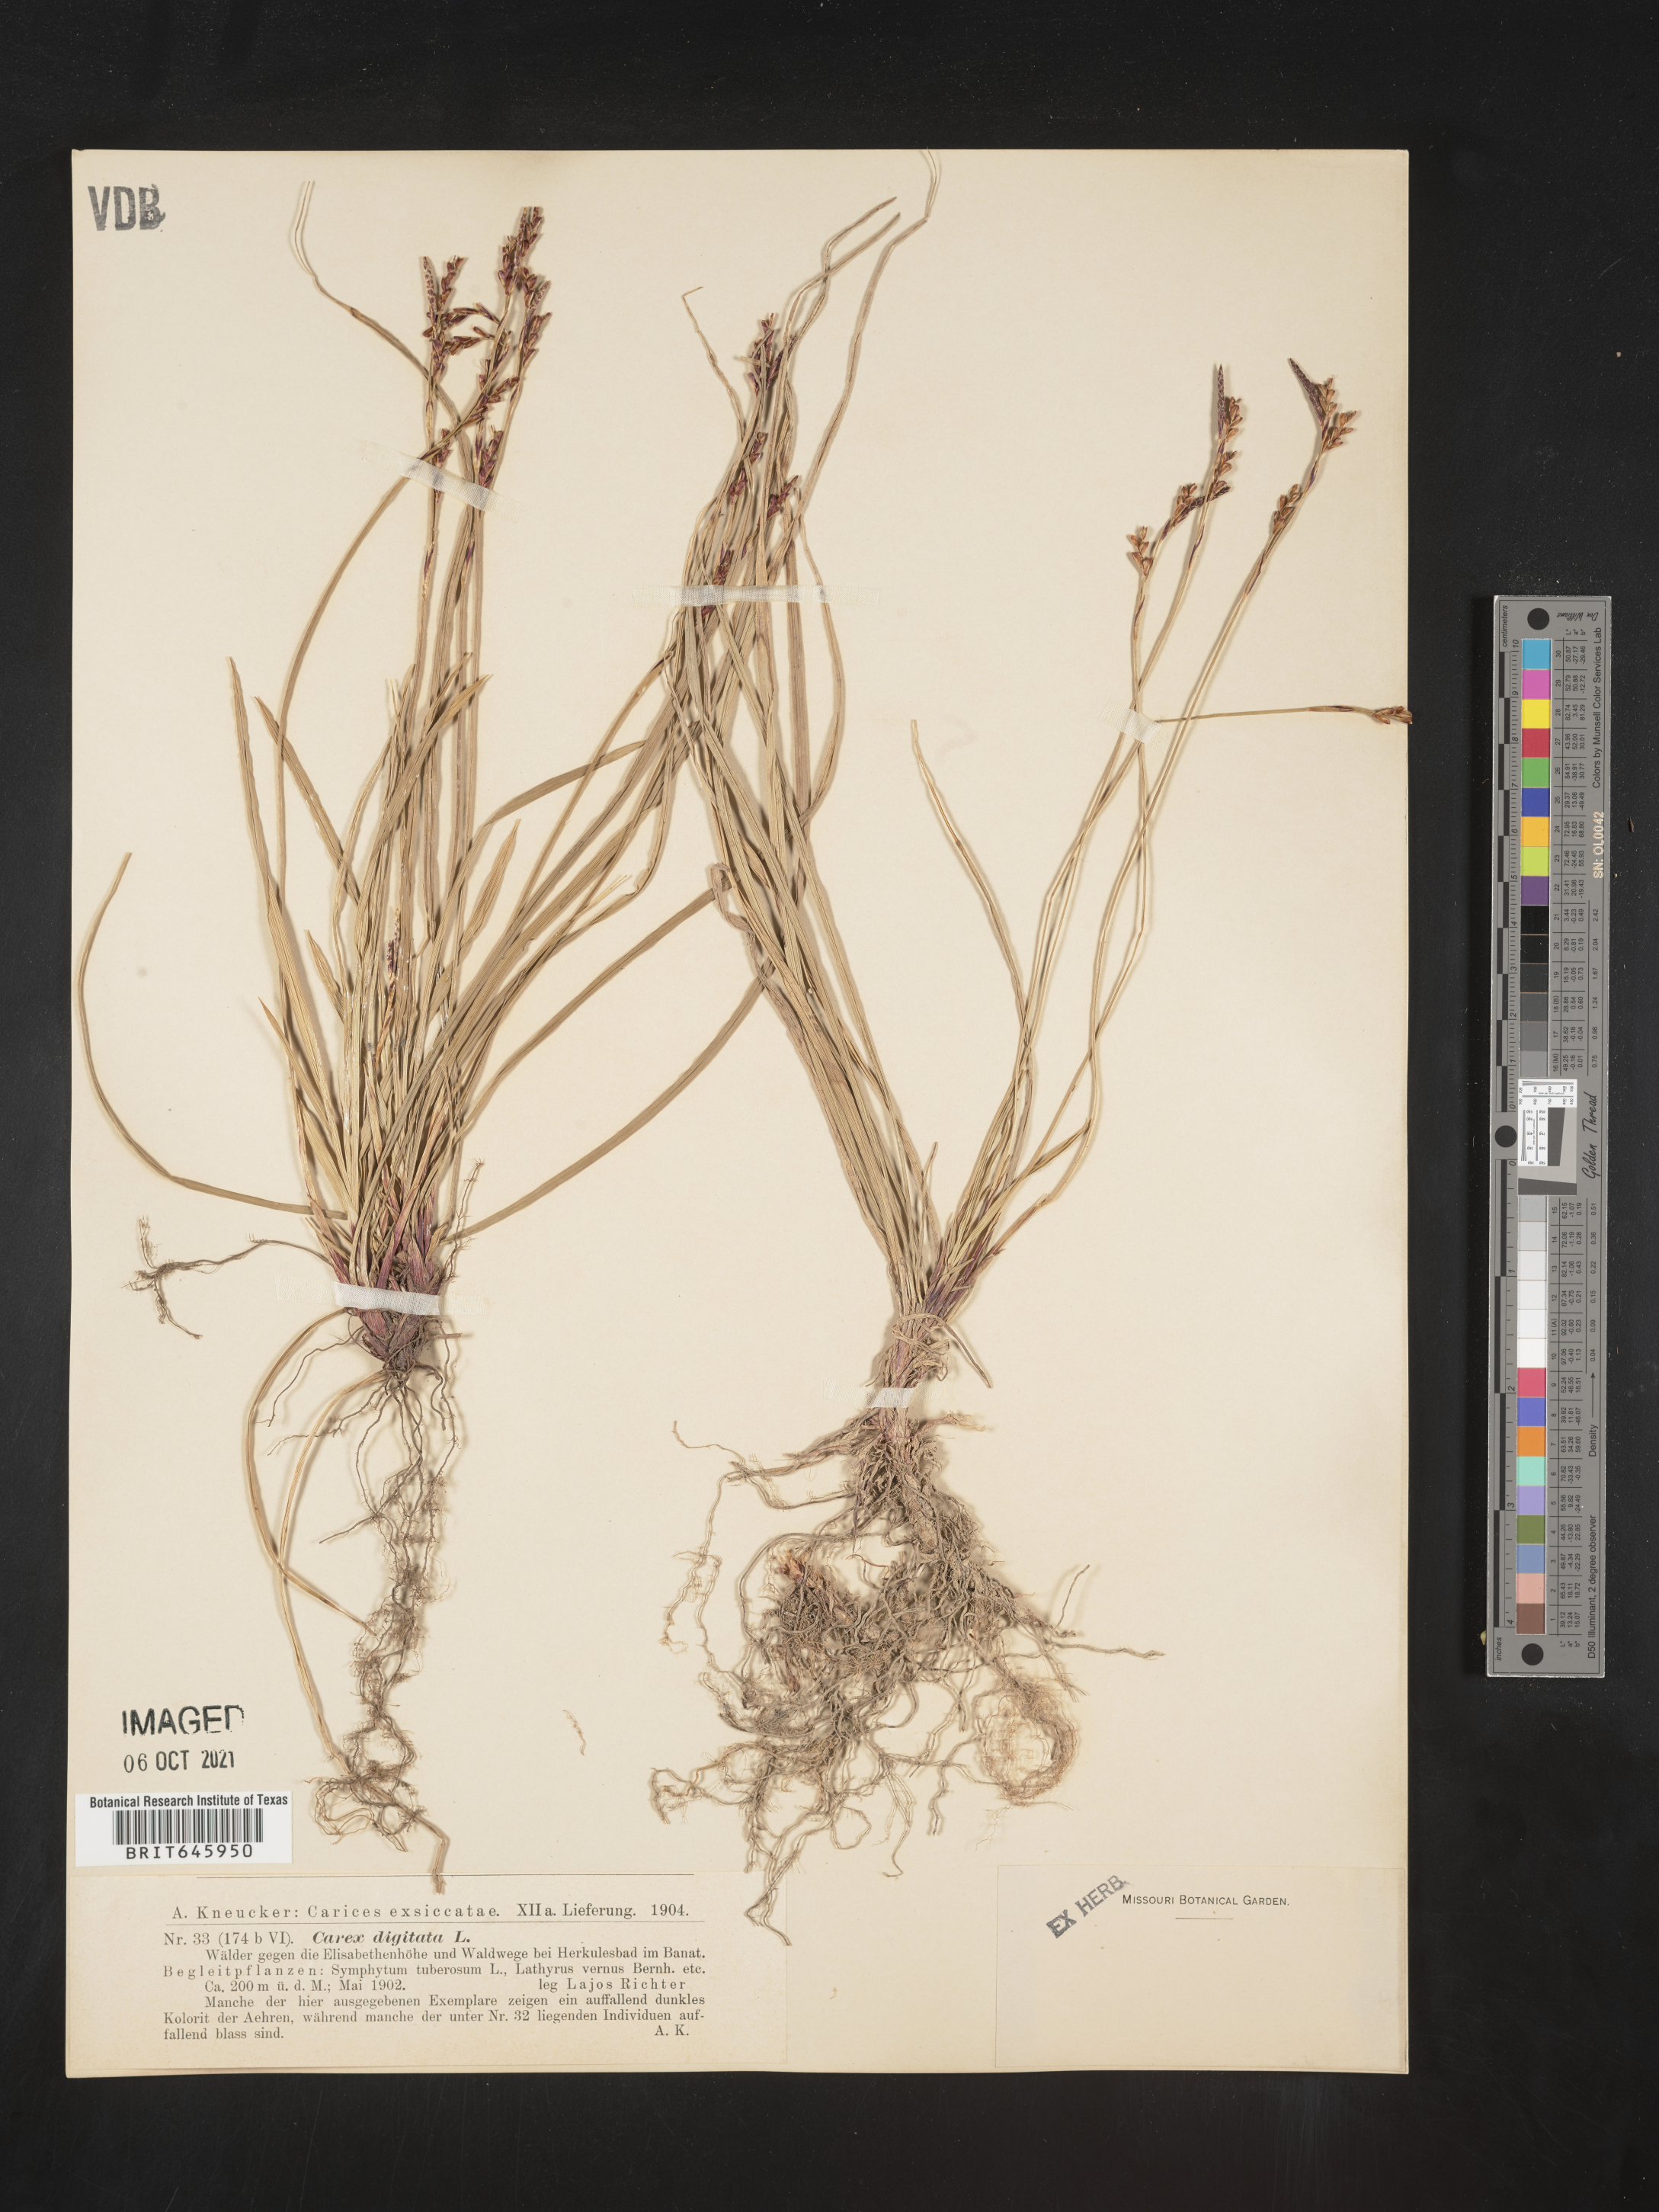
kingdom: Plantae
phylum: Tracheophyta
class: Liliopsida
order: Poales
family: Cyperaceae
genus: Carex
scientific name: Carex digitata
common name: Fingered sedge
